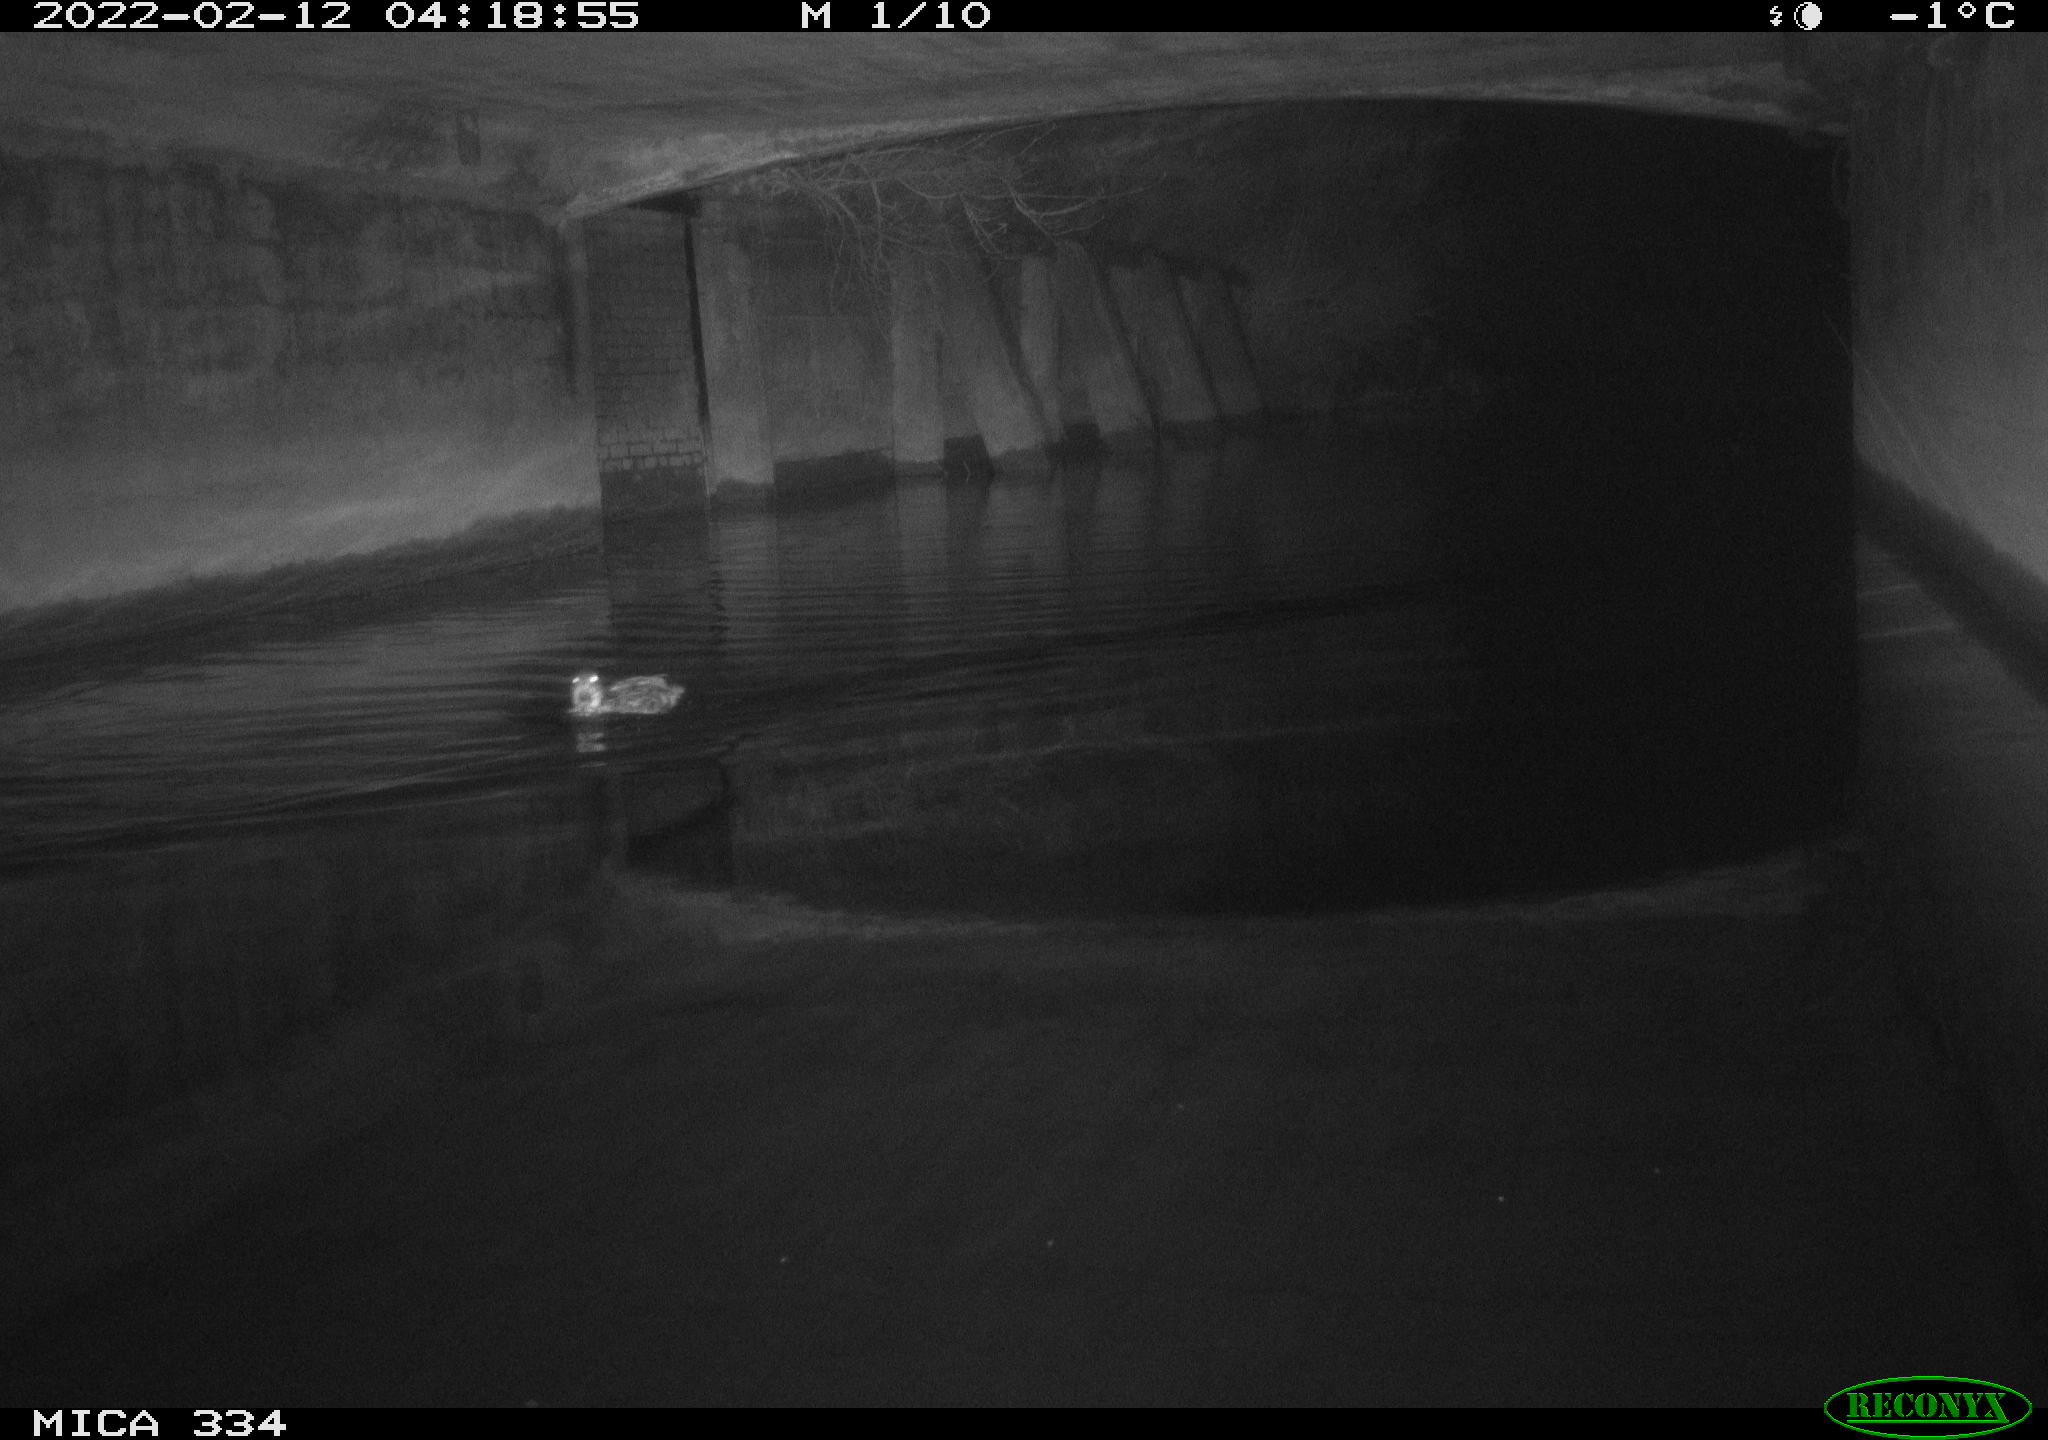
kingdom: Animalia
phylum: Chordata
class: Aves
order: Anseriformes
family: Anatidae
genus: Anas
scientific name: Anas platyrhynchos
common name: Mallard
